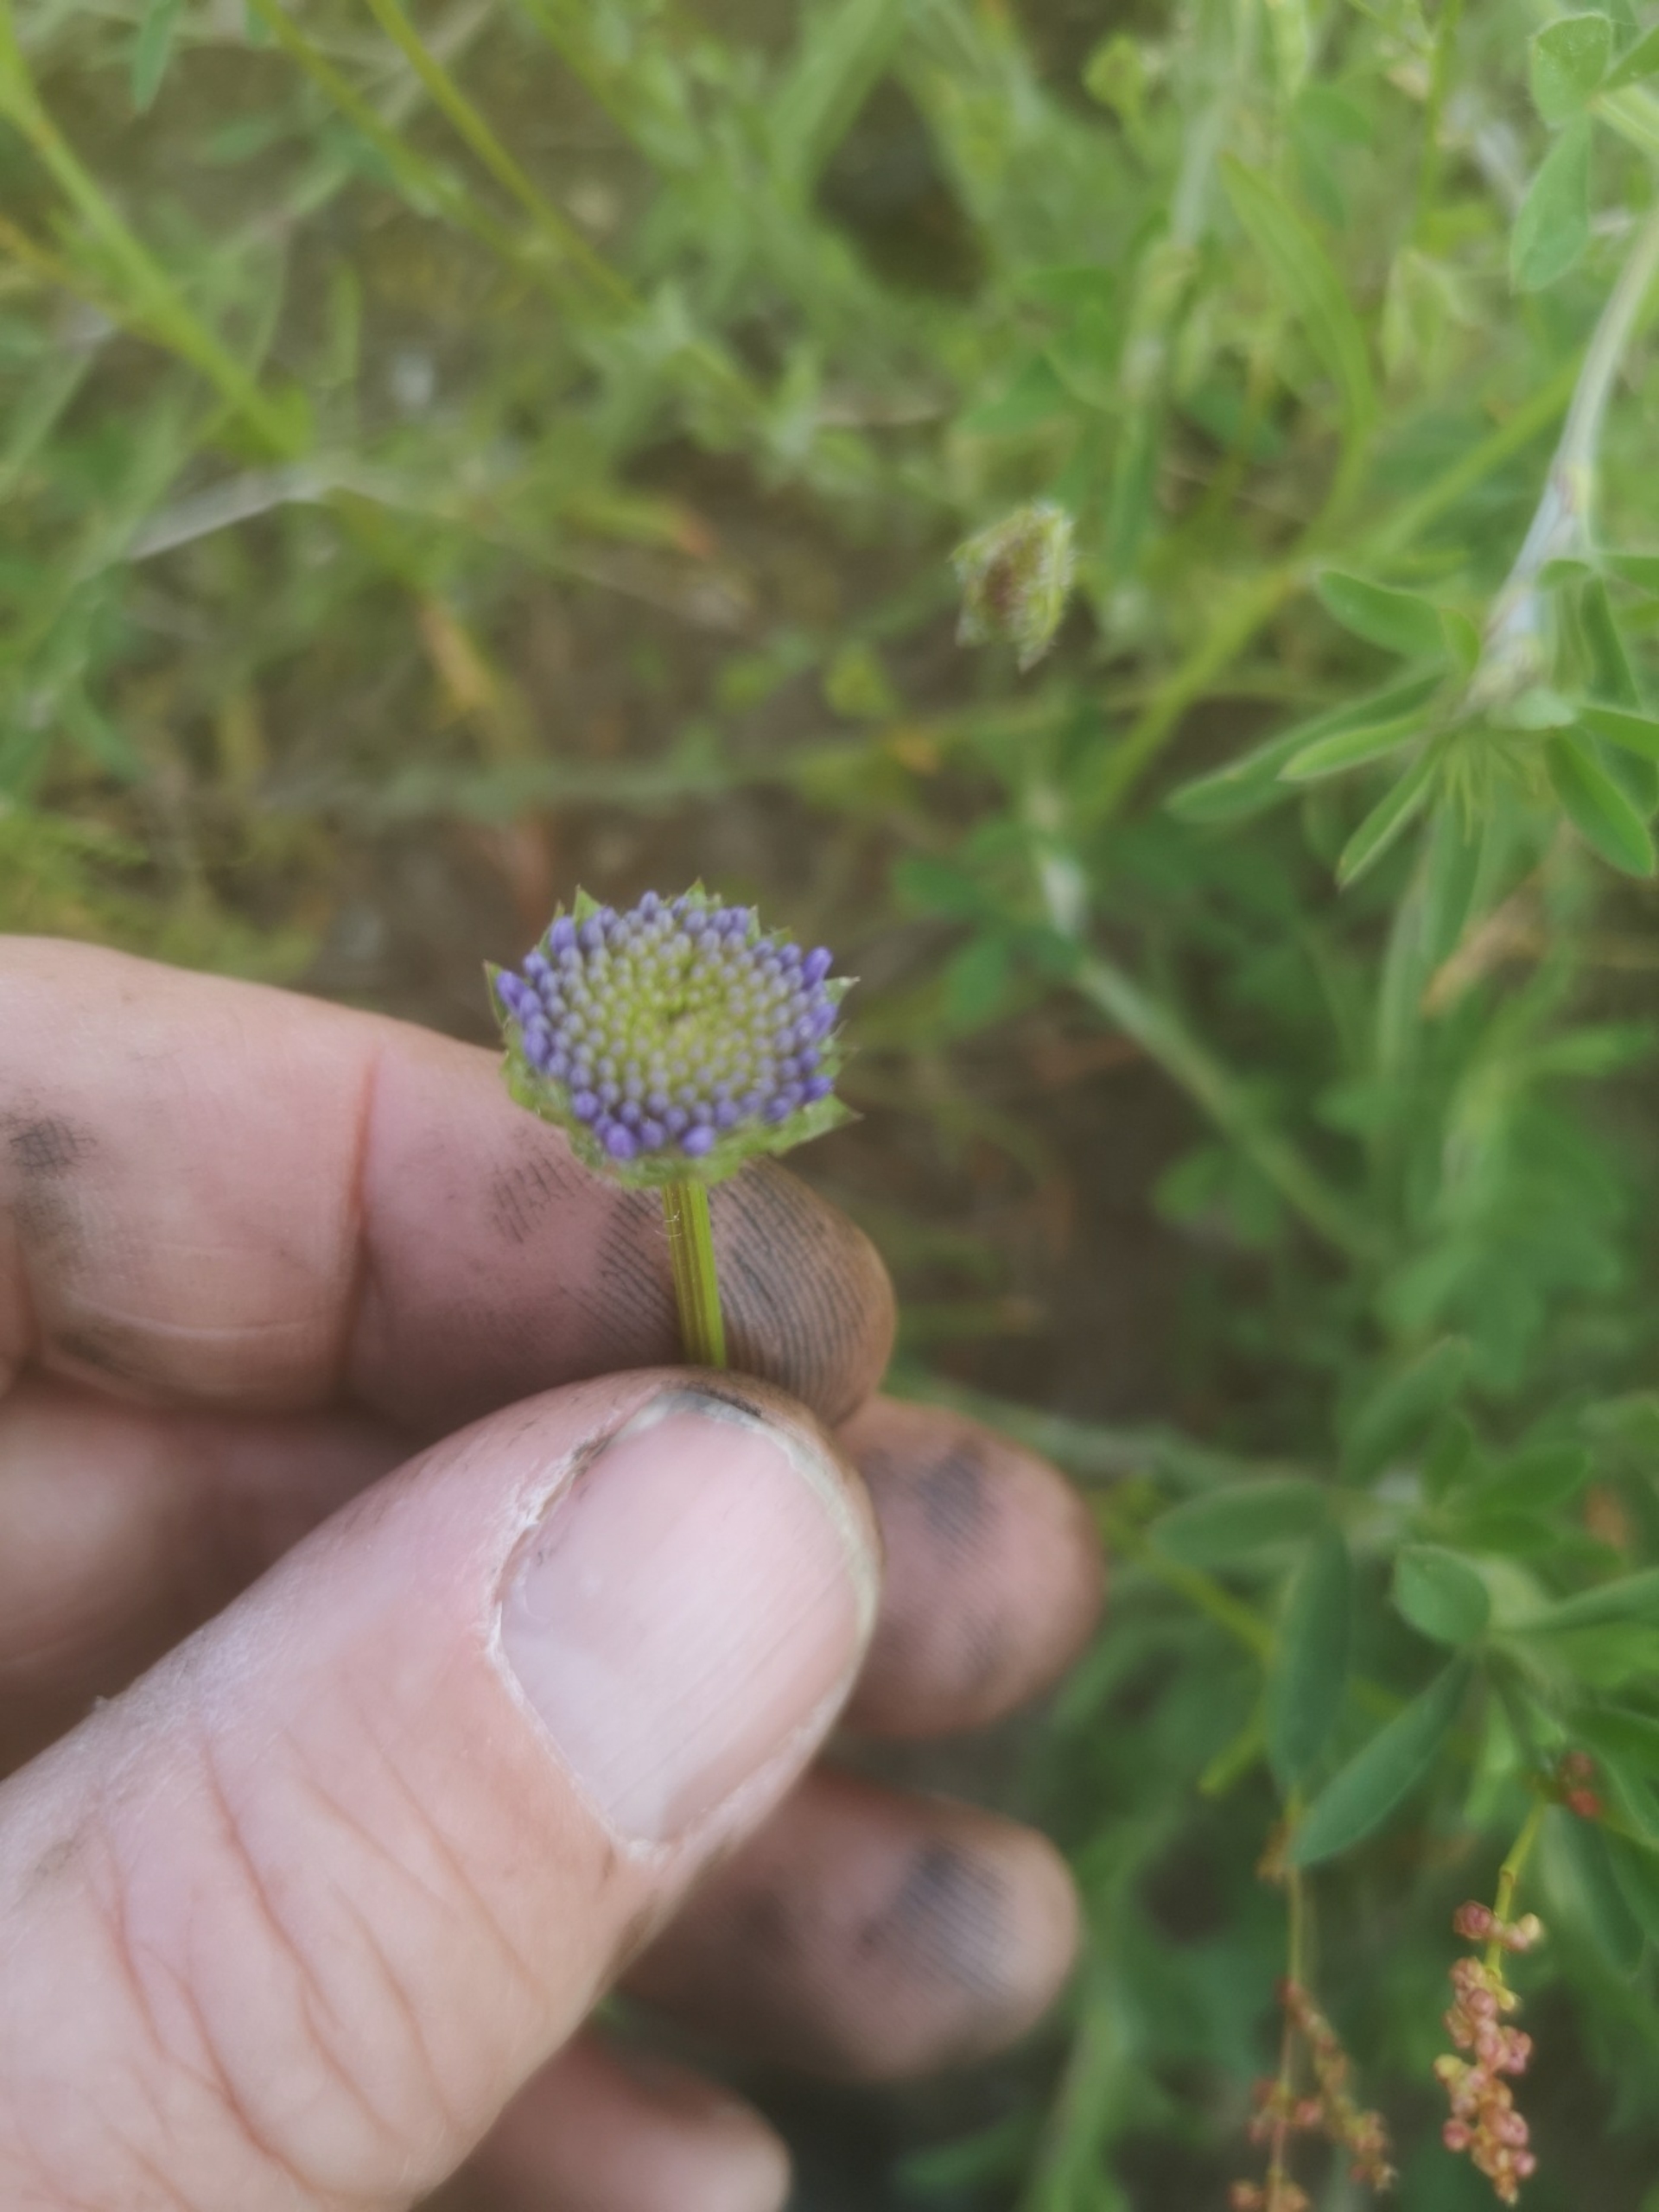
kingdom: Plantae
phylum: Tracheophyta
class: Magnoliopsida
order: Asterales
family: Campanulaceae
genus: Jasione
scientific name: Jasione montana
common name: Blåmunke
